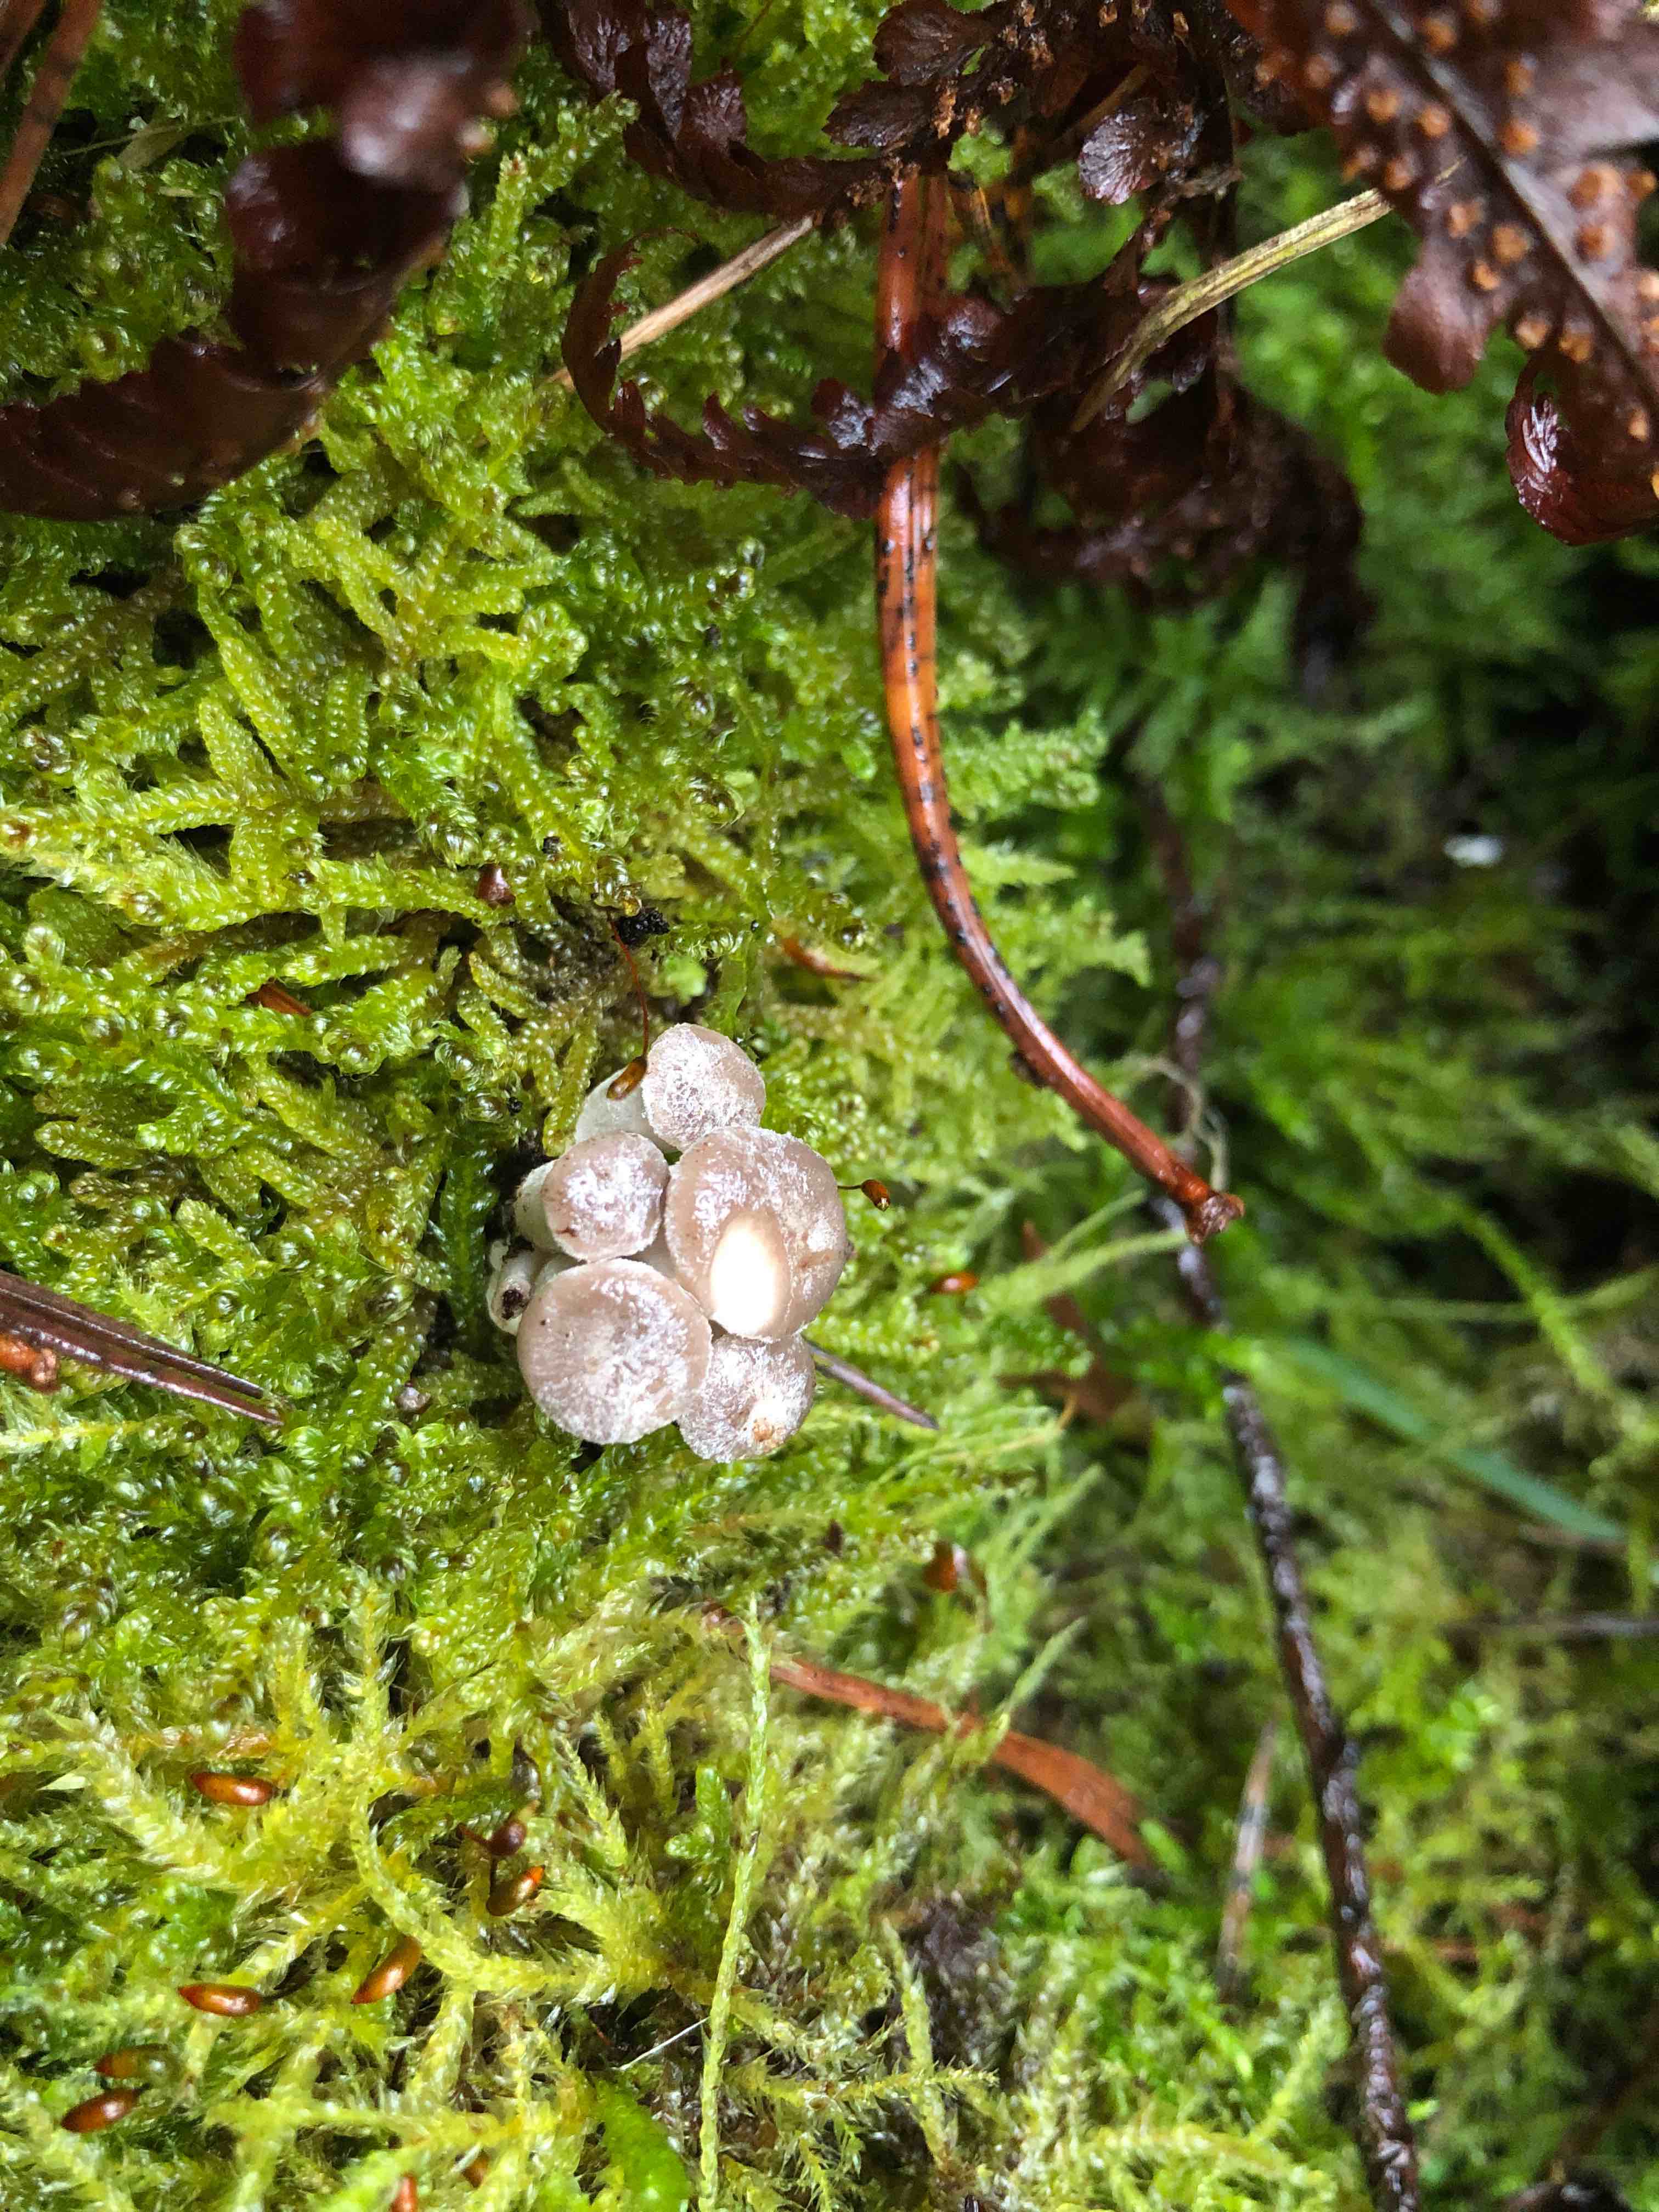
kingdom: Fungi
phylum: Basidiomycota
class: Agaricomycetes
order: Agaricales
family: Pleurotaceae
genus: Pleurotus
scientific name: Pleurotus ostreatus
